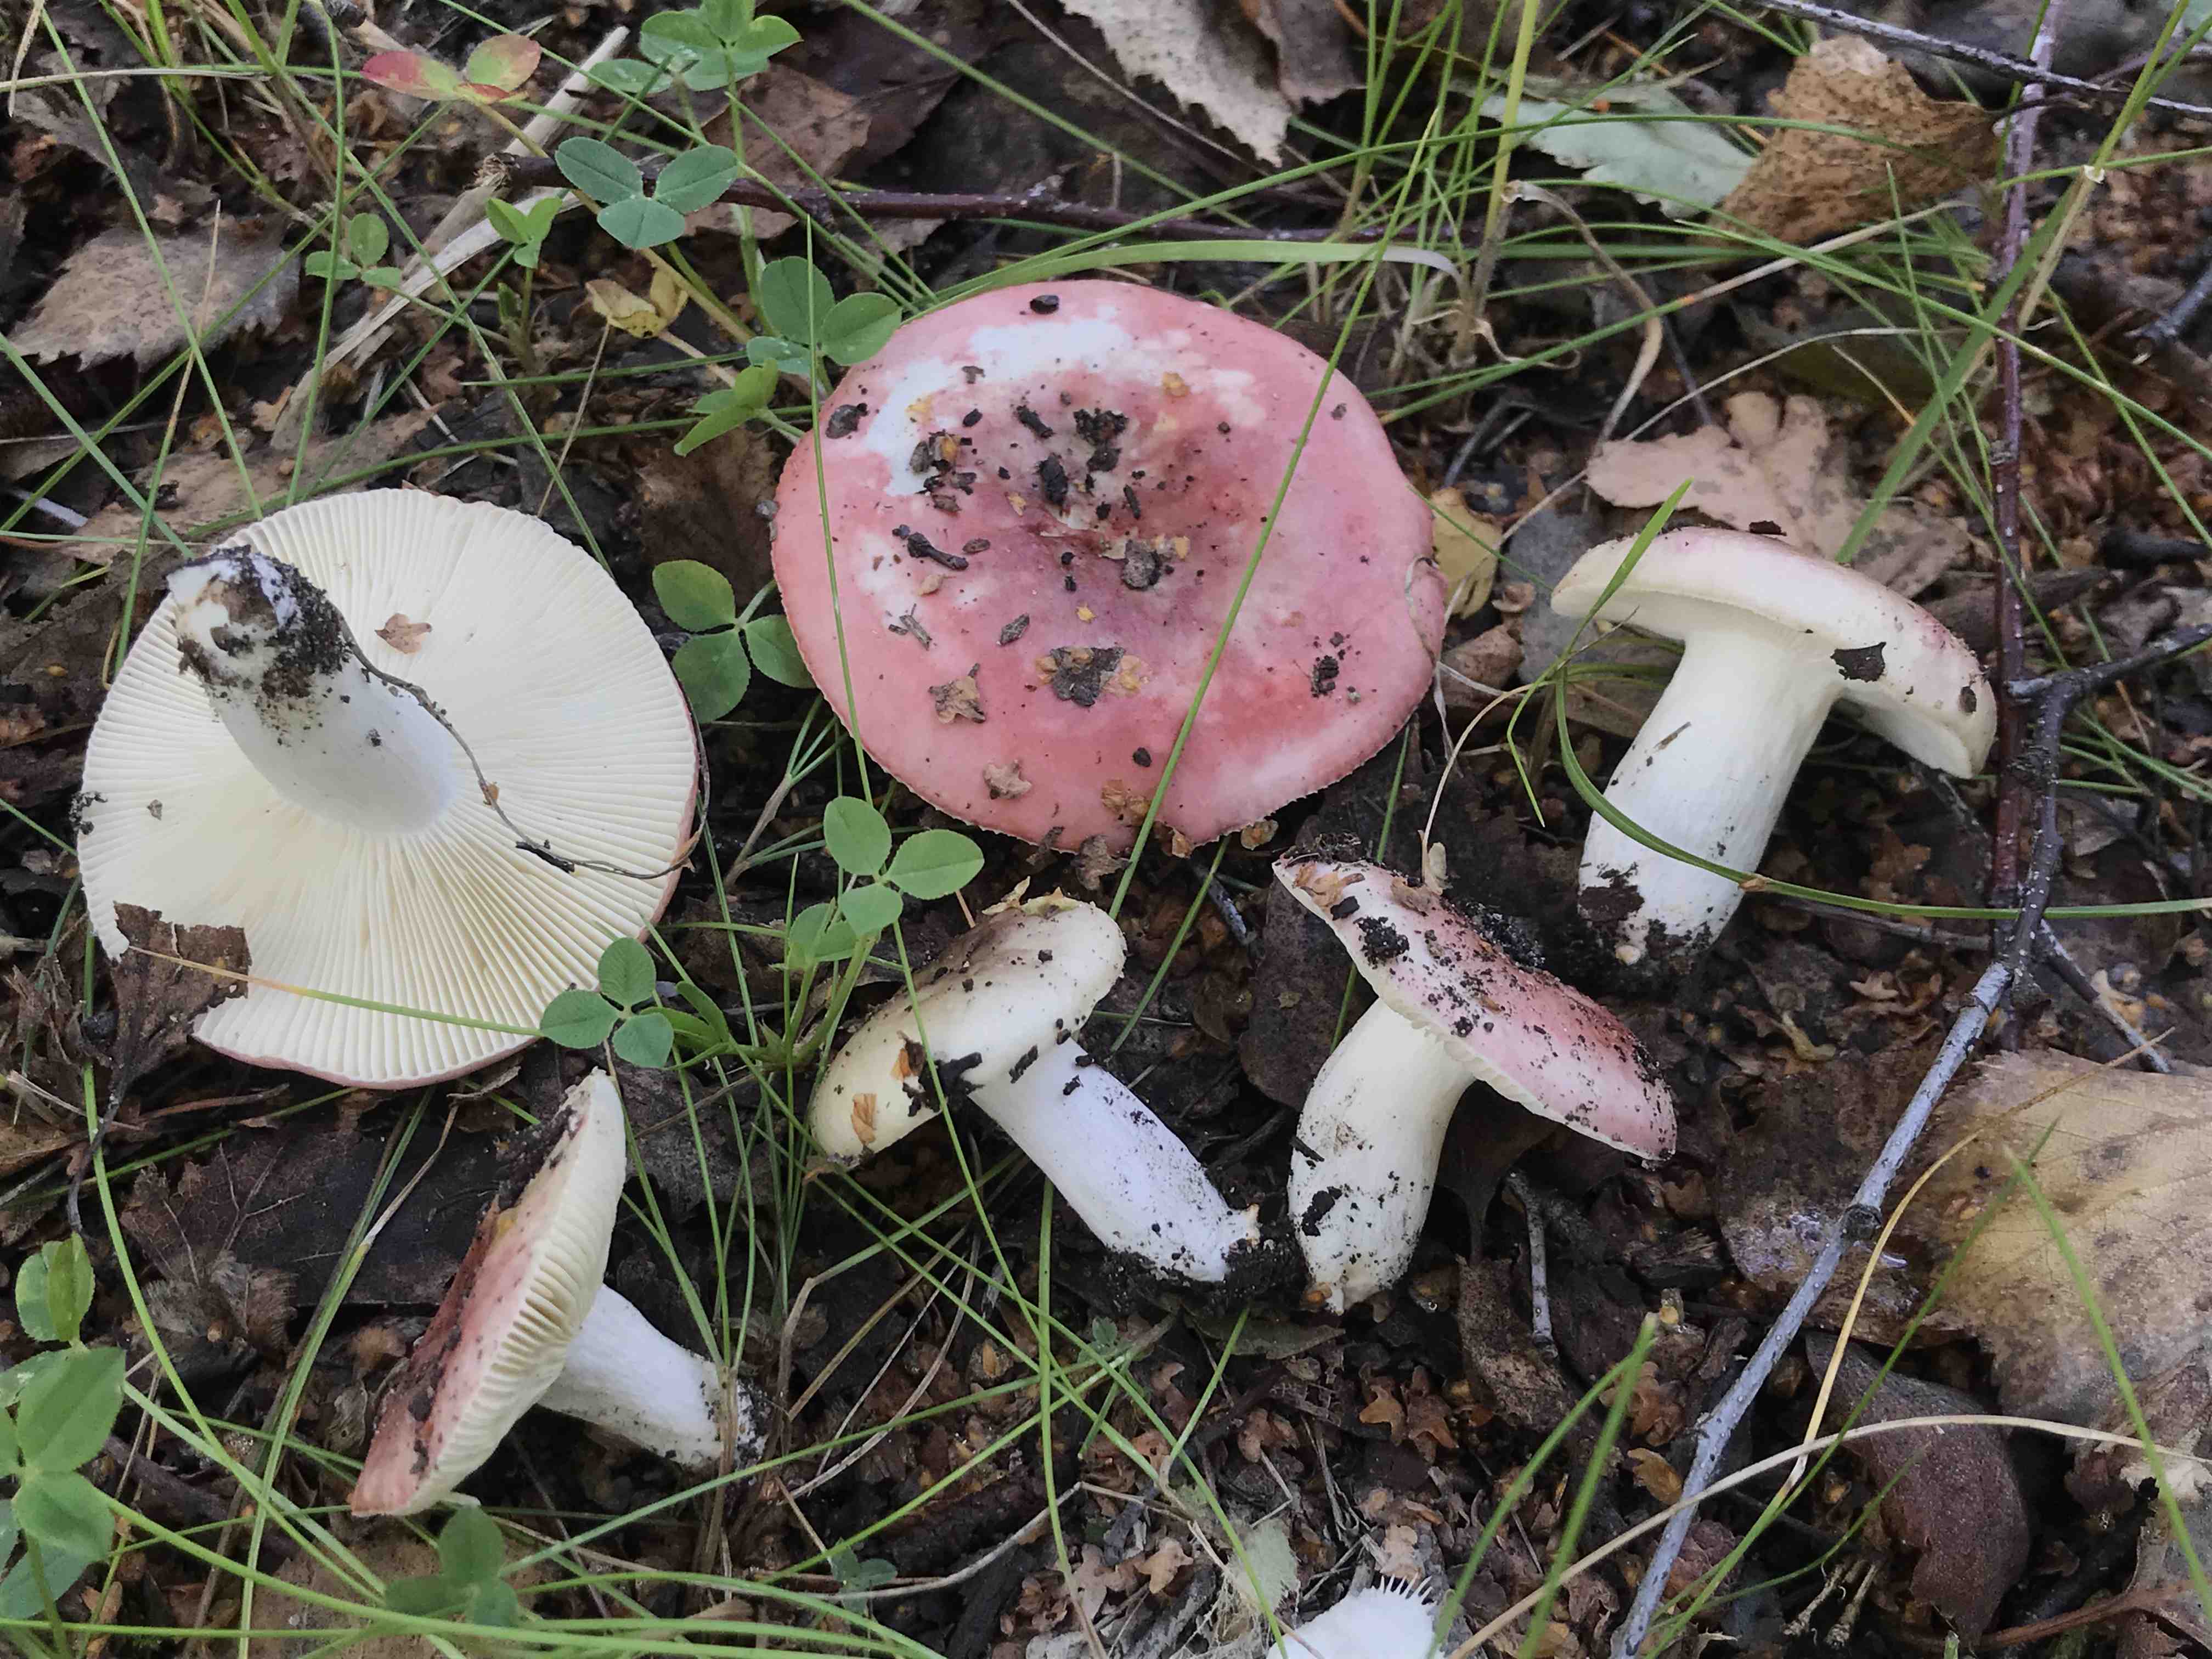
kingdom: Fungi
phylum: Basidiomycota
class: Agaricomycetes
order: Russulales
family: Russulaceae
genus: Russula
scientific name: Russula depallens
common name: falmende skørhat
